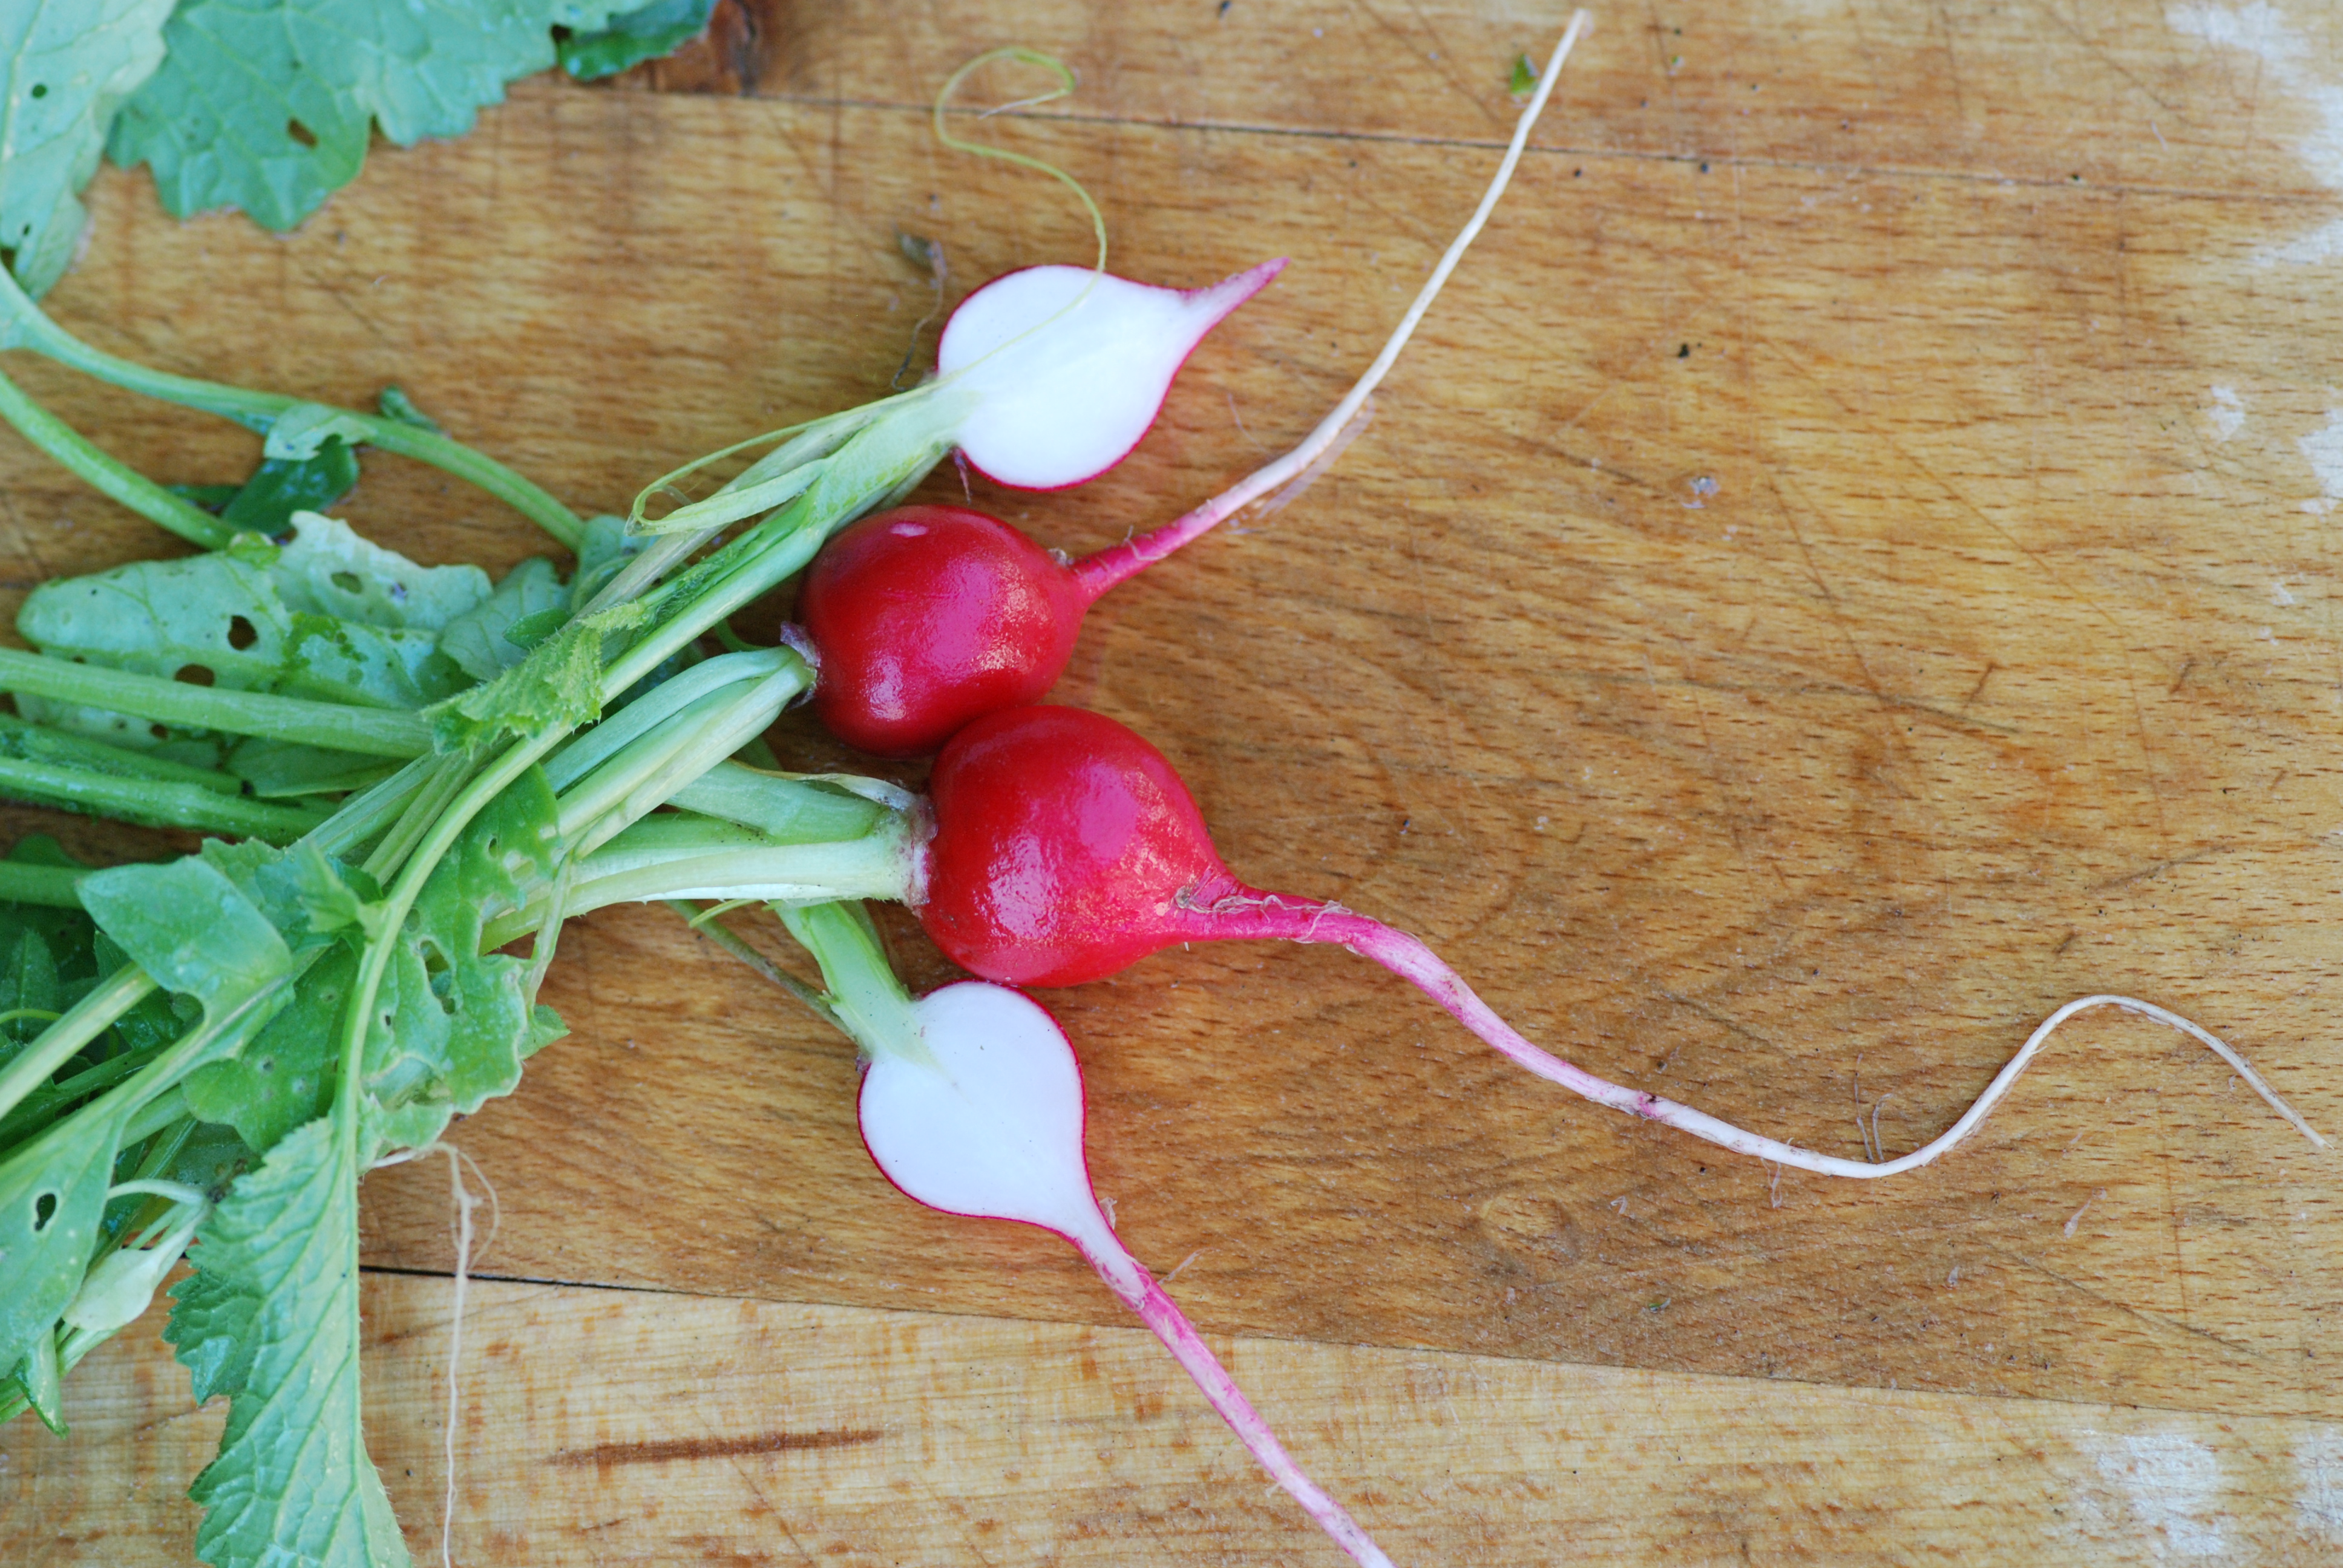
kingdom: Plantae
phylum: Tracheophyta
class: Magnoliopsida
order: Brassicales
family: Brassicaceae
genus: Raphanus
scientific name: Raphanus sativus
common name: Cultivated radish
